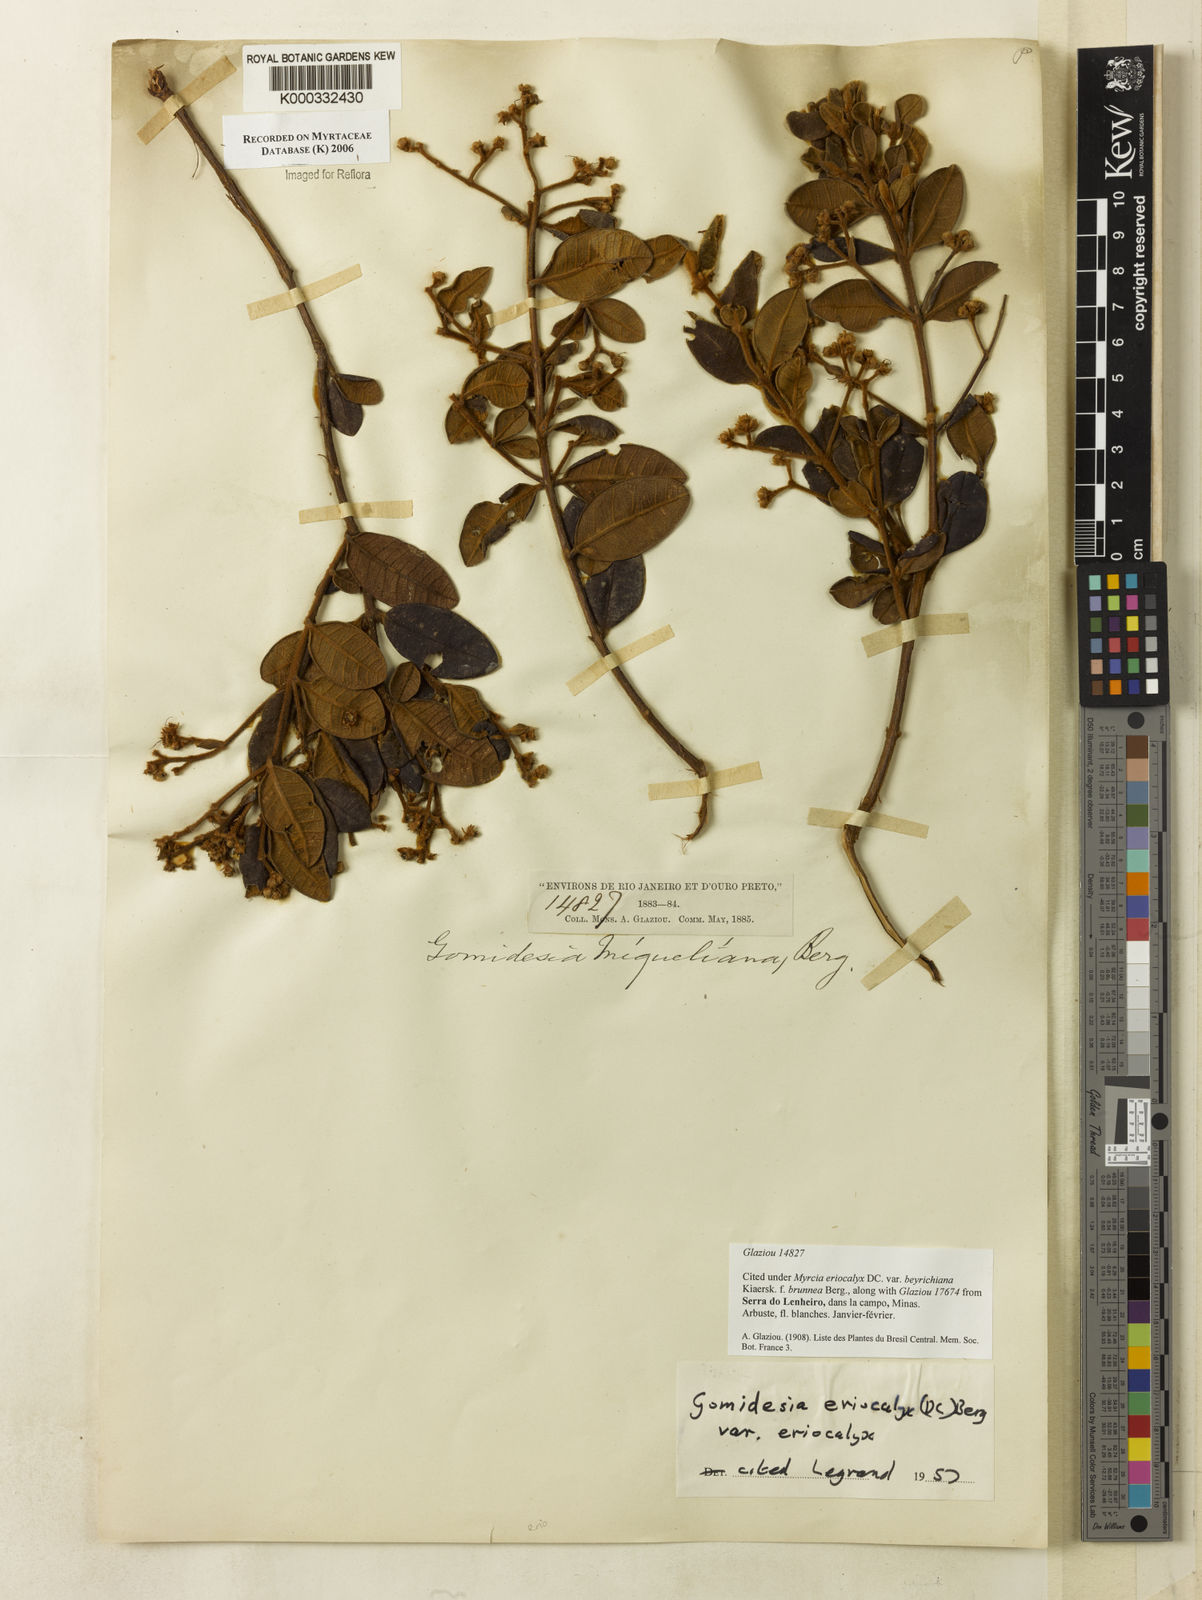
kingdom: Plantae
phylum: Tracheophyta
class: Magnoliopsida
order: Myrtales
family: Myrtaceae
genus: Myrcia
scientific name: Myrcia eriocalyx
